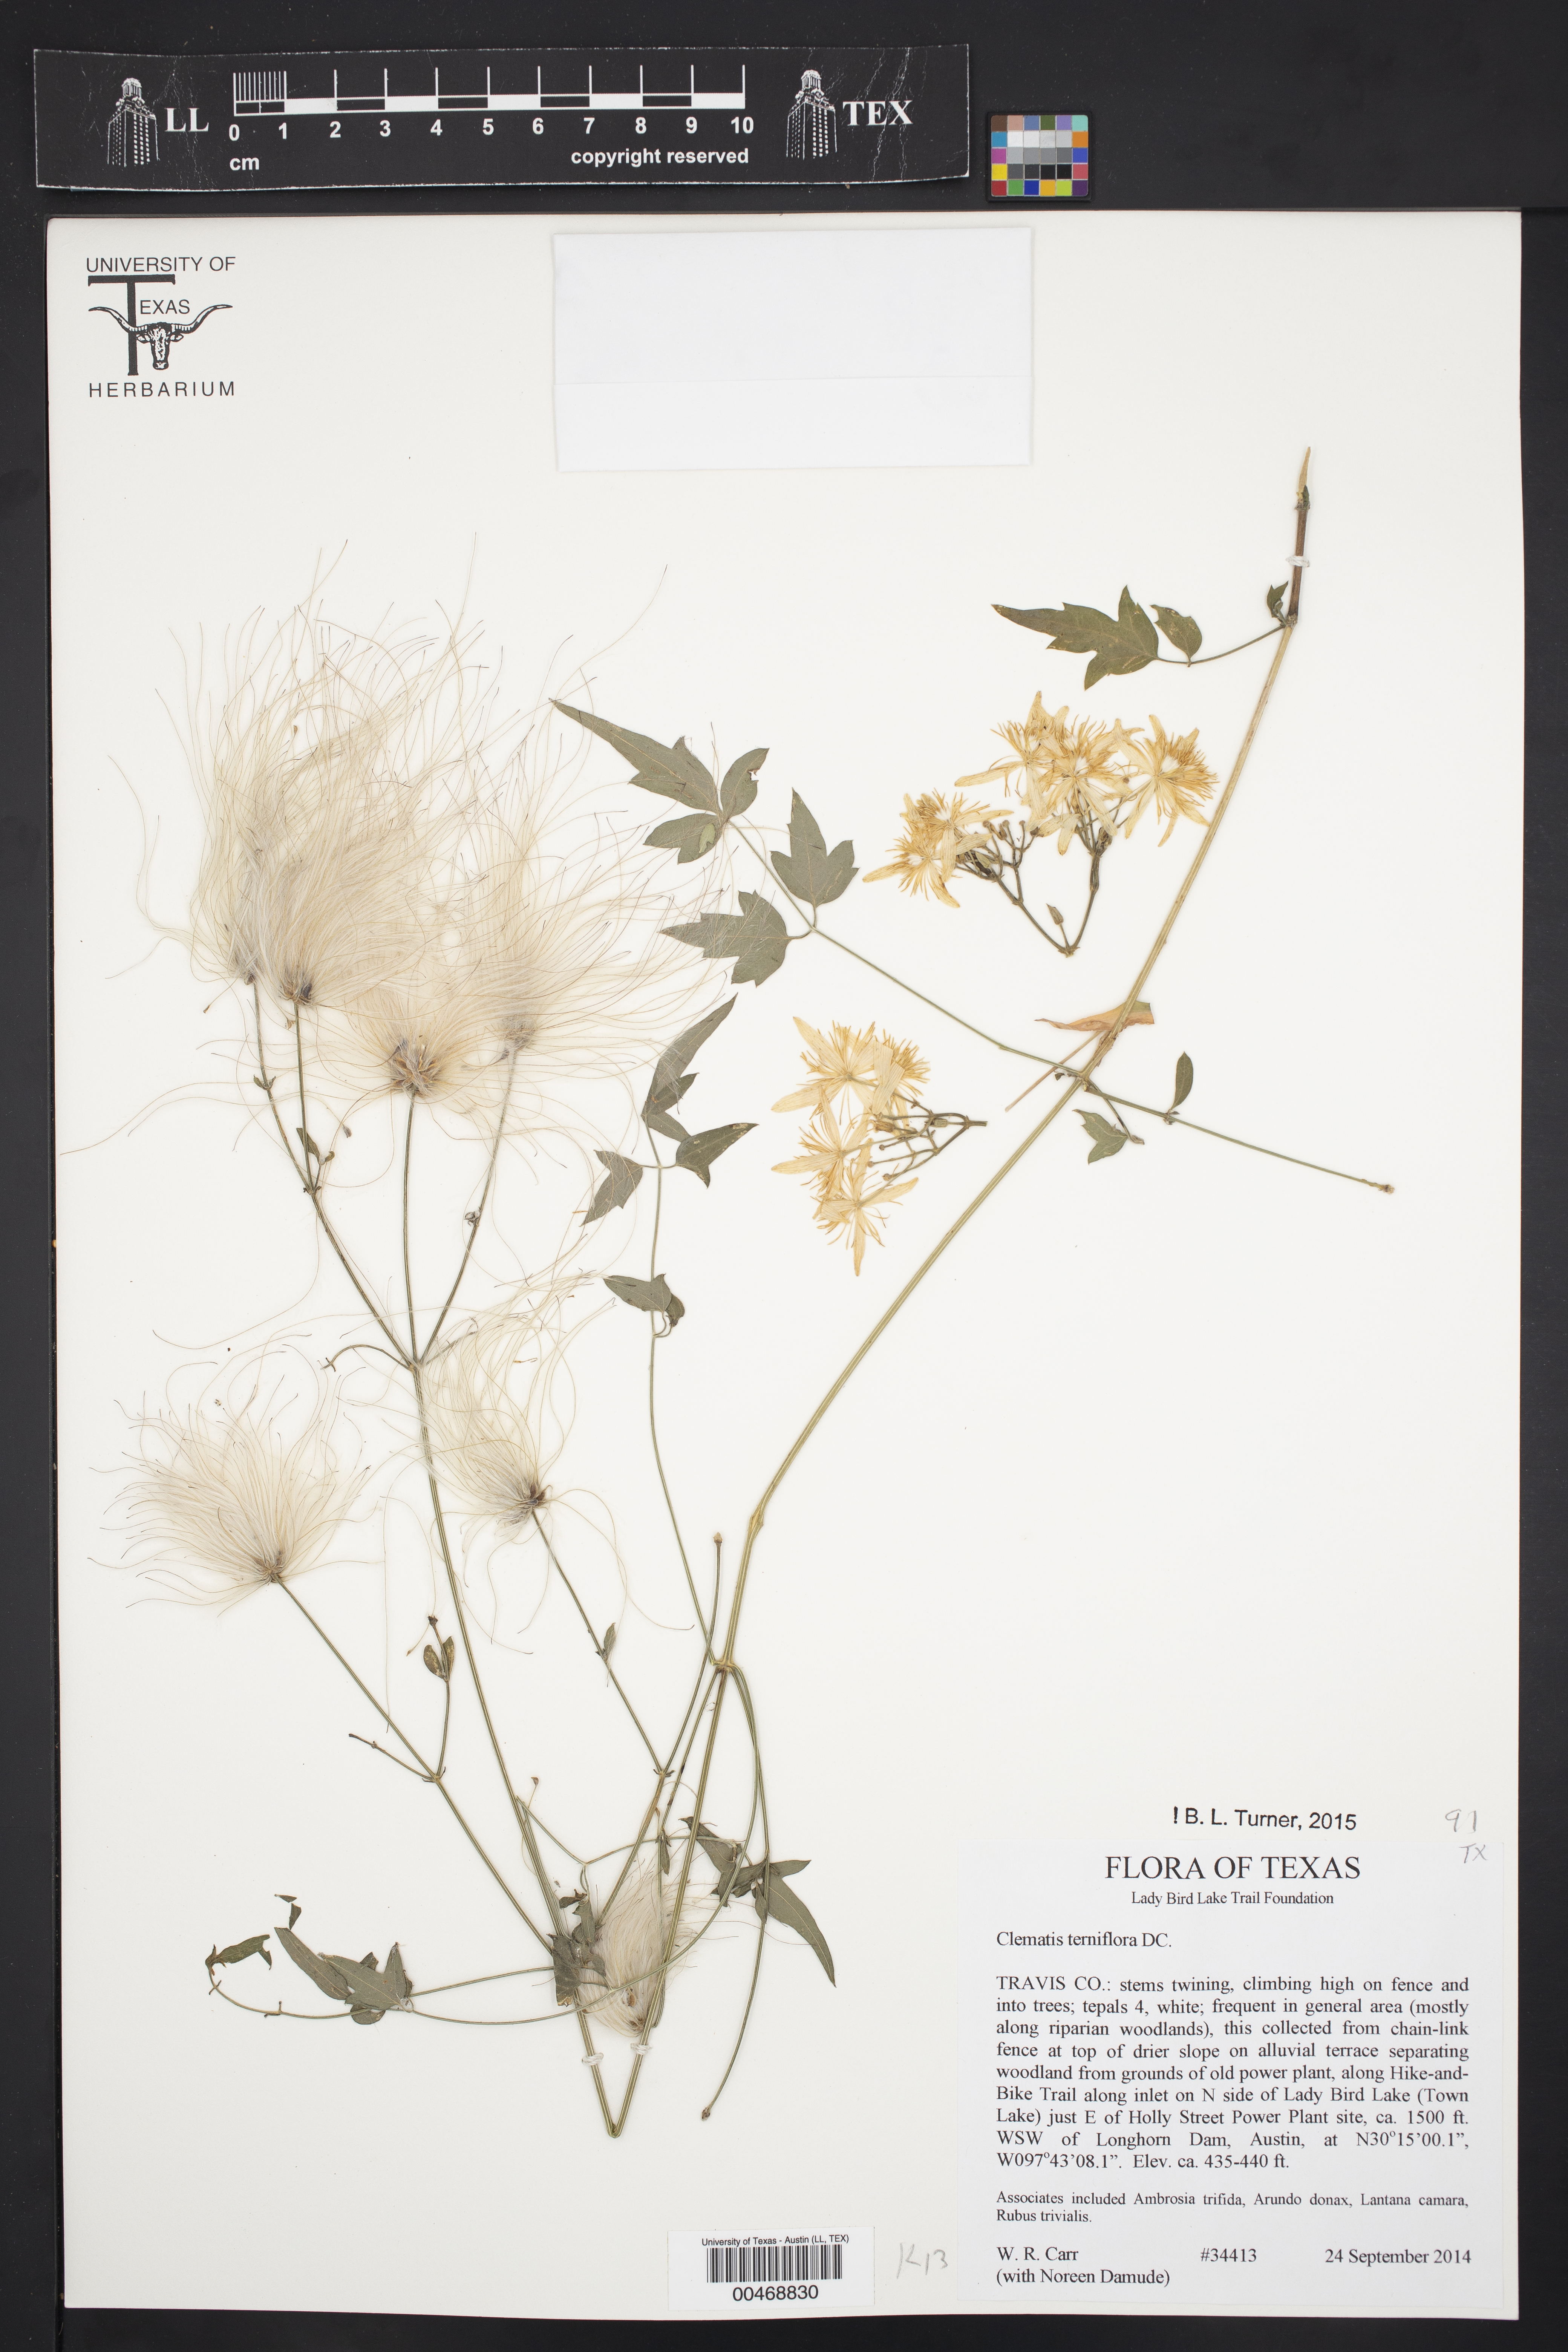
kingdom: Plantae
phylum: Tracheophyta
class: Magnoliopsida
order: Ranunculales
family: Ranunculaceae
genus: Clematis
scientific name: Clematis terniflora
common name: Sweet autumn clematis
